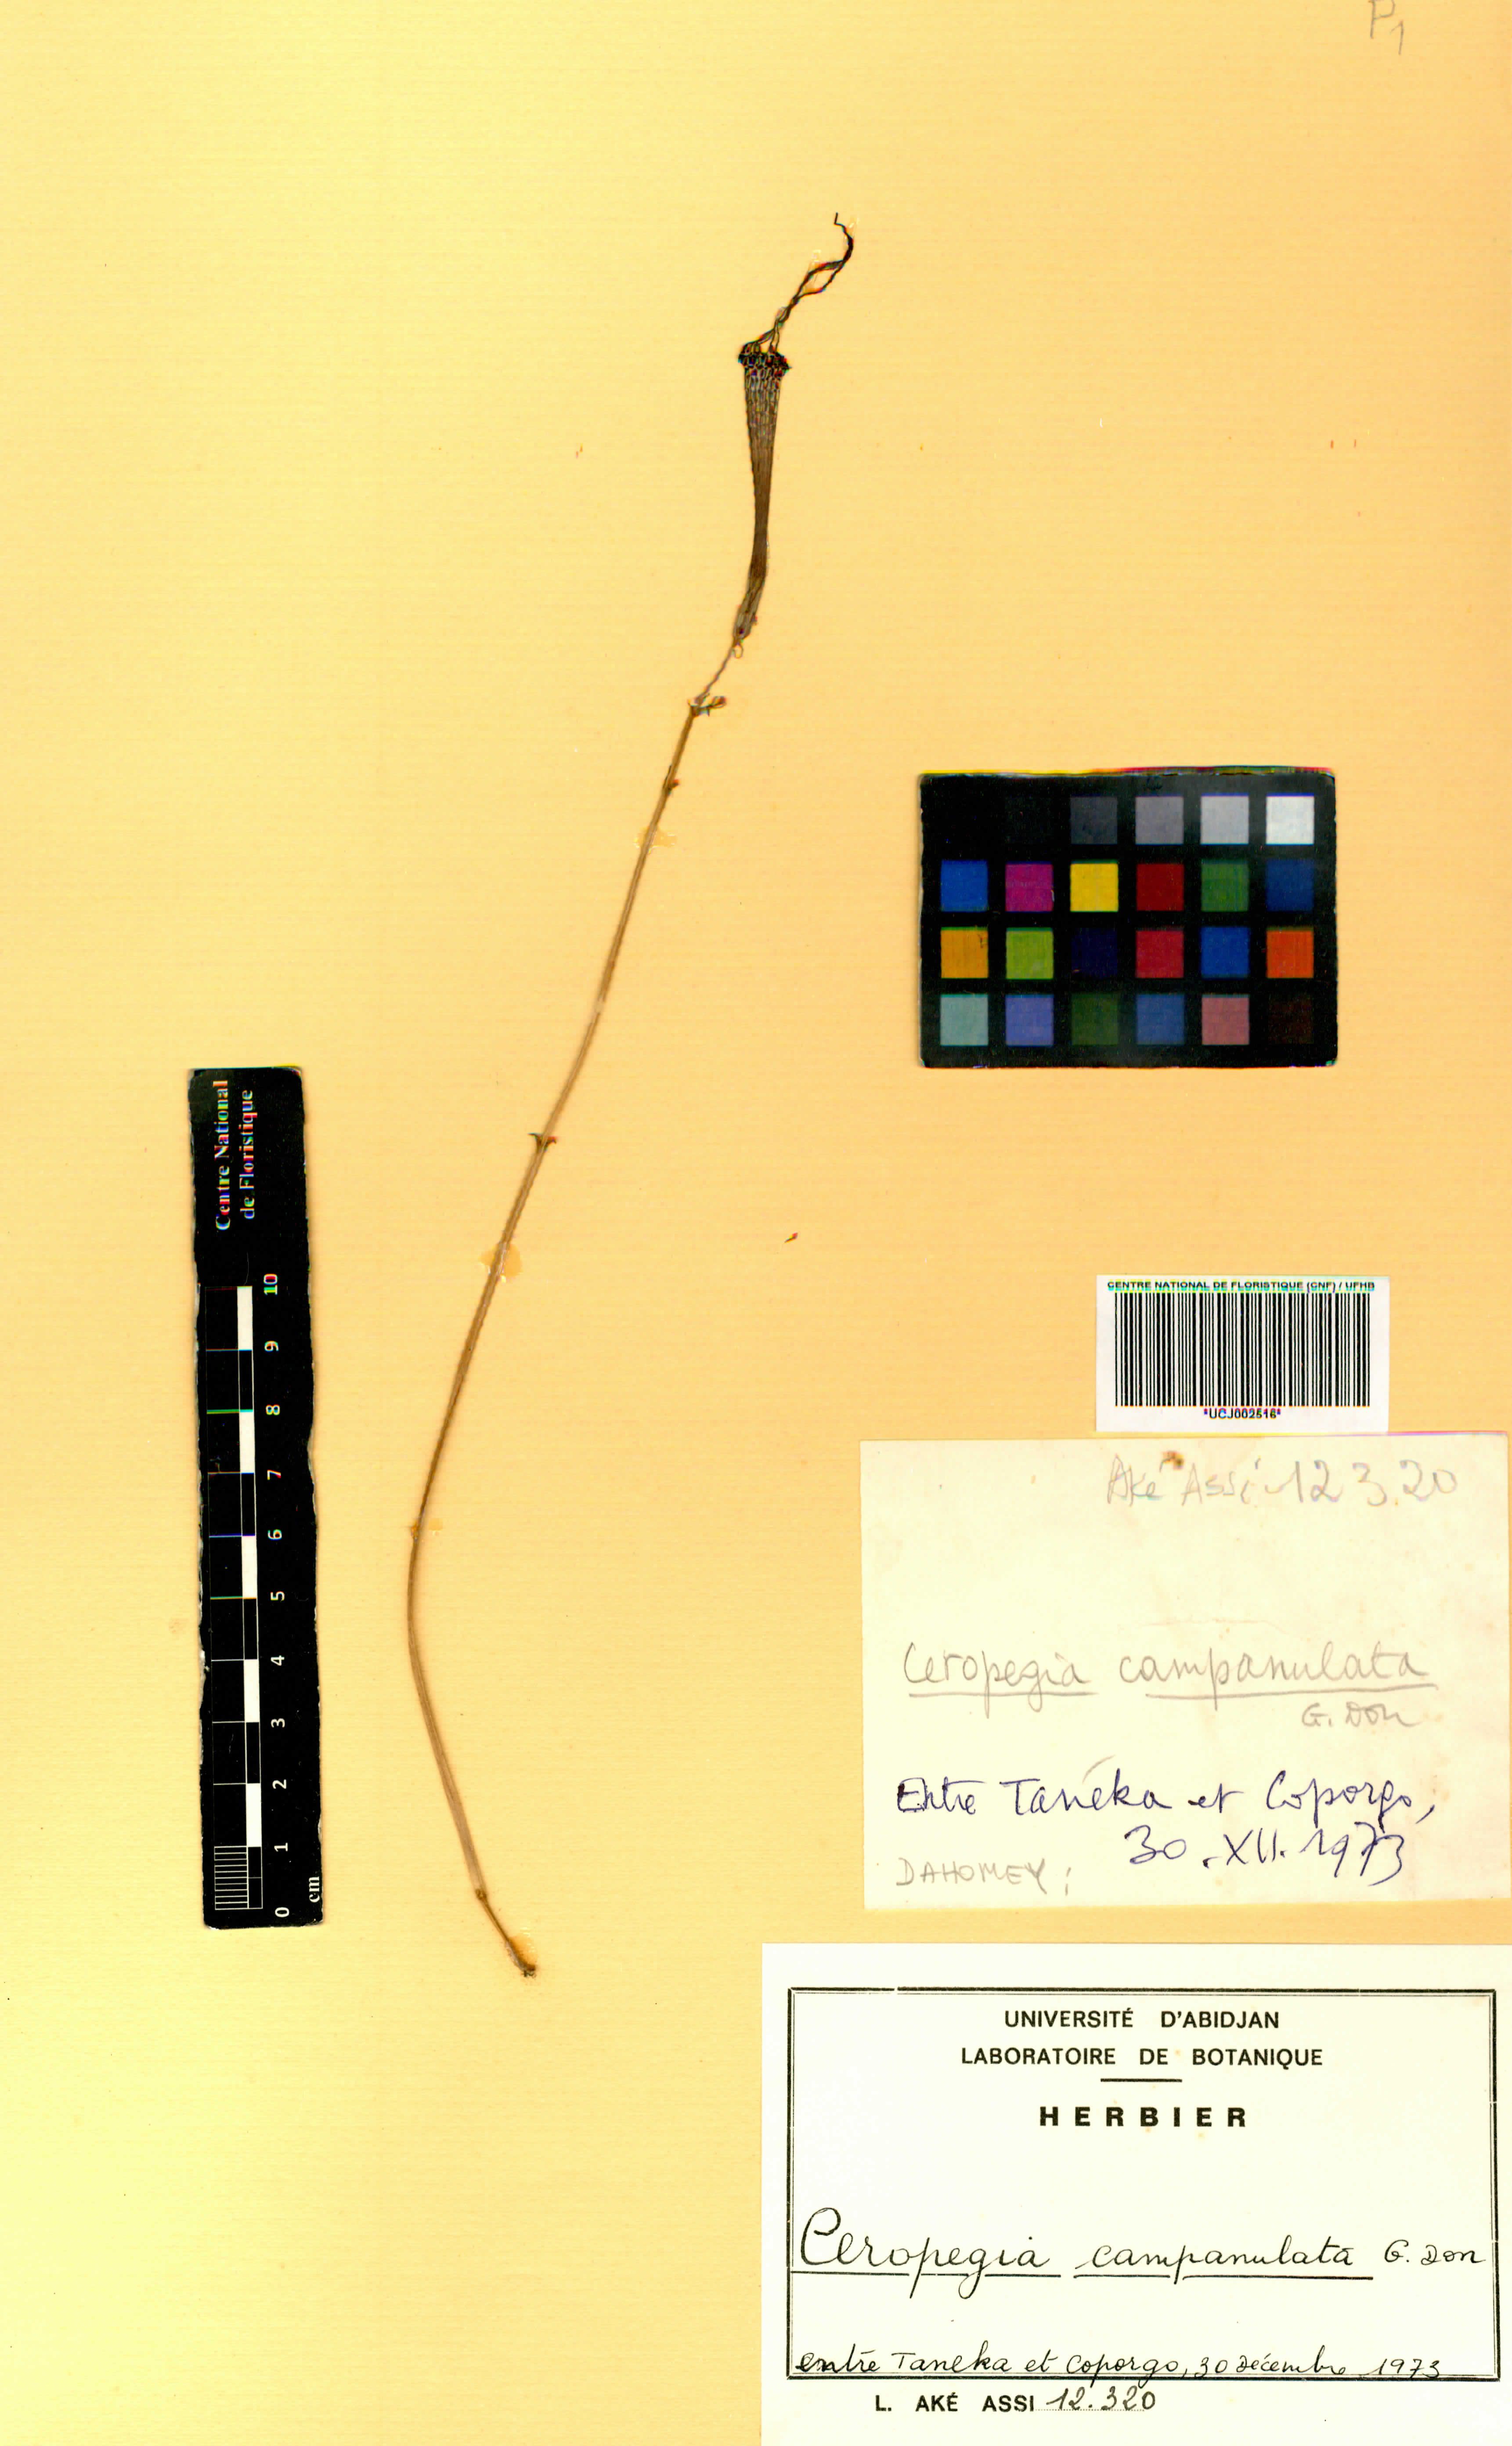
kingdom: Plantae
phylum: Tracheophyta
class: Magnoliopsida
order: Gentianales
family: Apocynaceae
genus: Ceropegia
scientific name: Ceropegia campanulata
